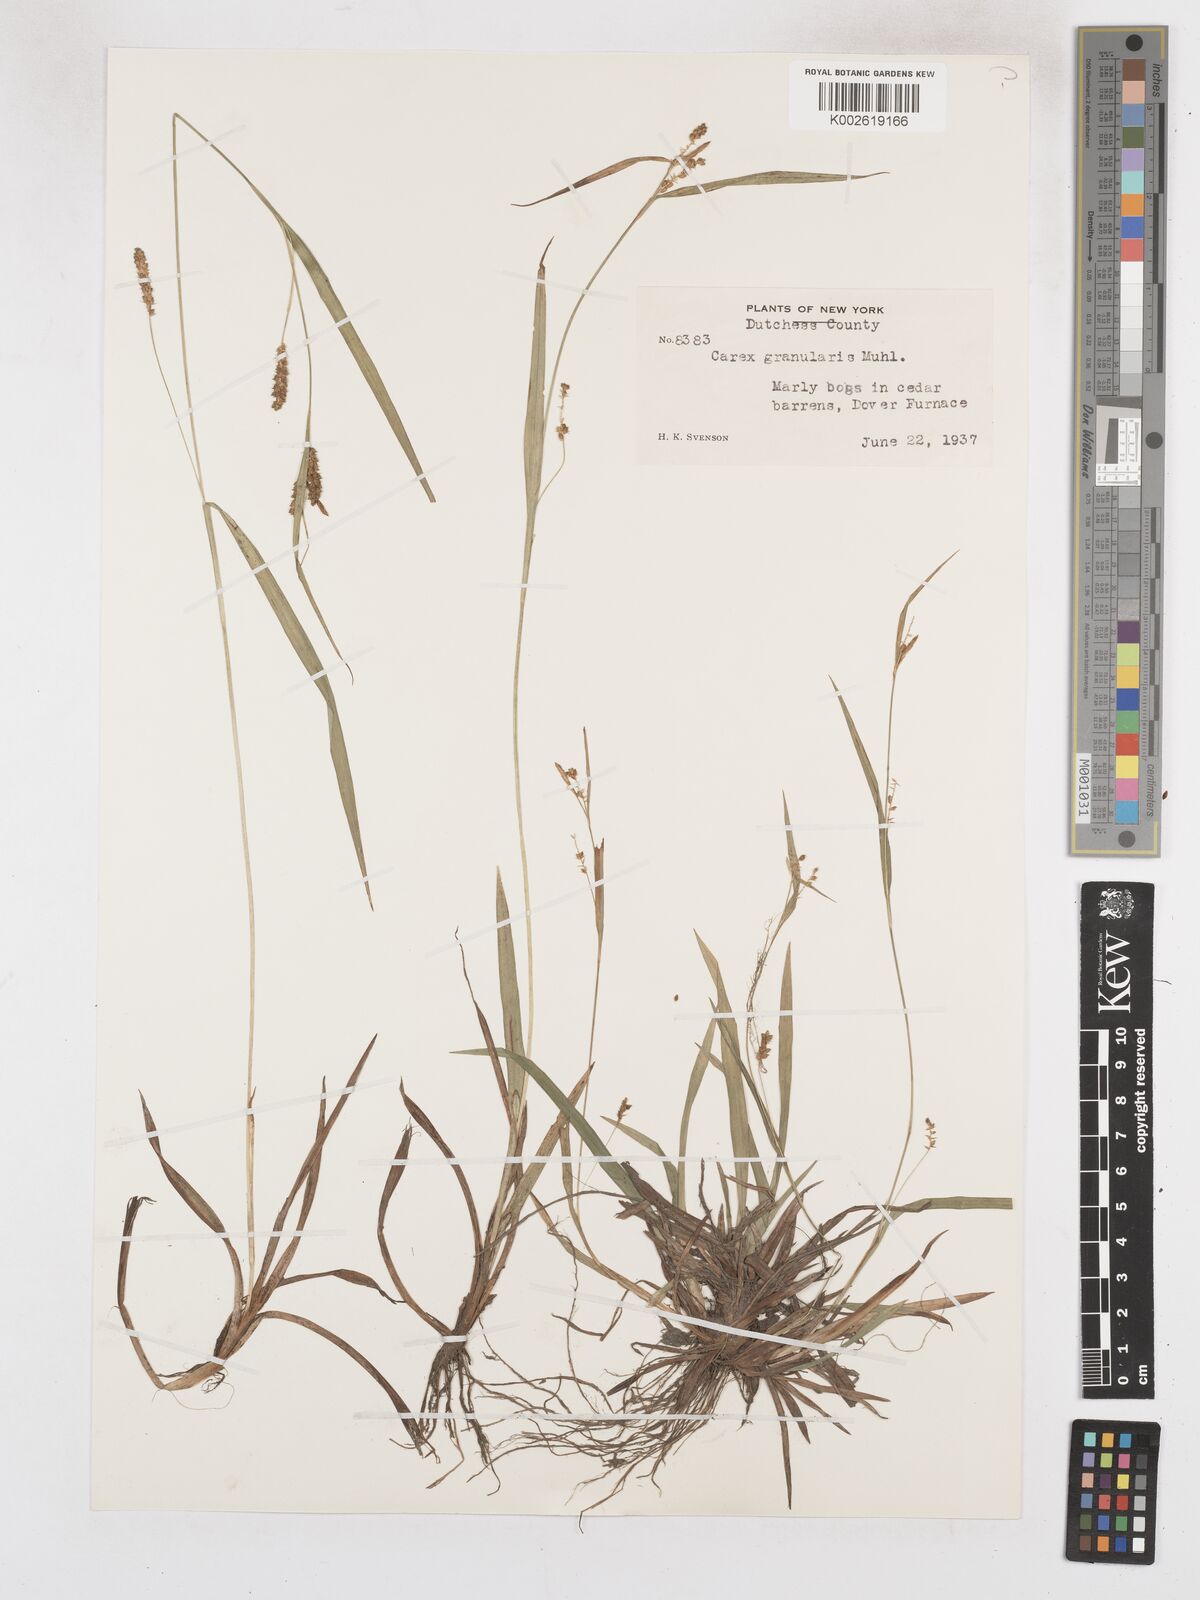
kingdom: Plantae
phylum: Tracheophyta
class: Liliopsida
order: Poales
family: Cyperaceae
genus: Carex
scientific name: Carex granularis
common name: Granular sedge
